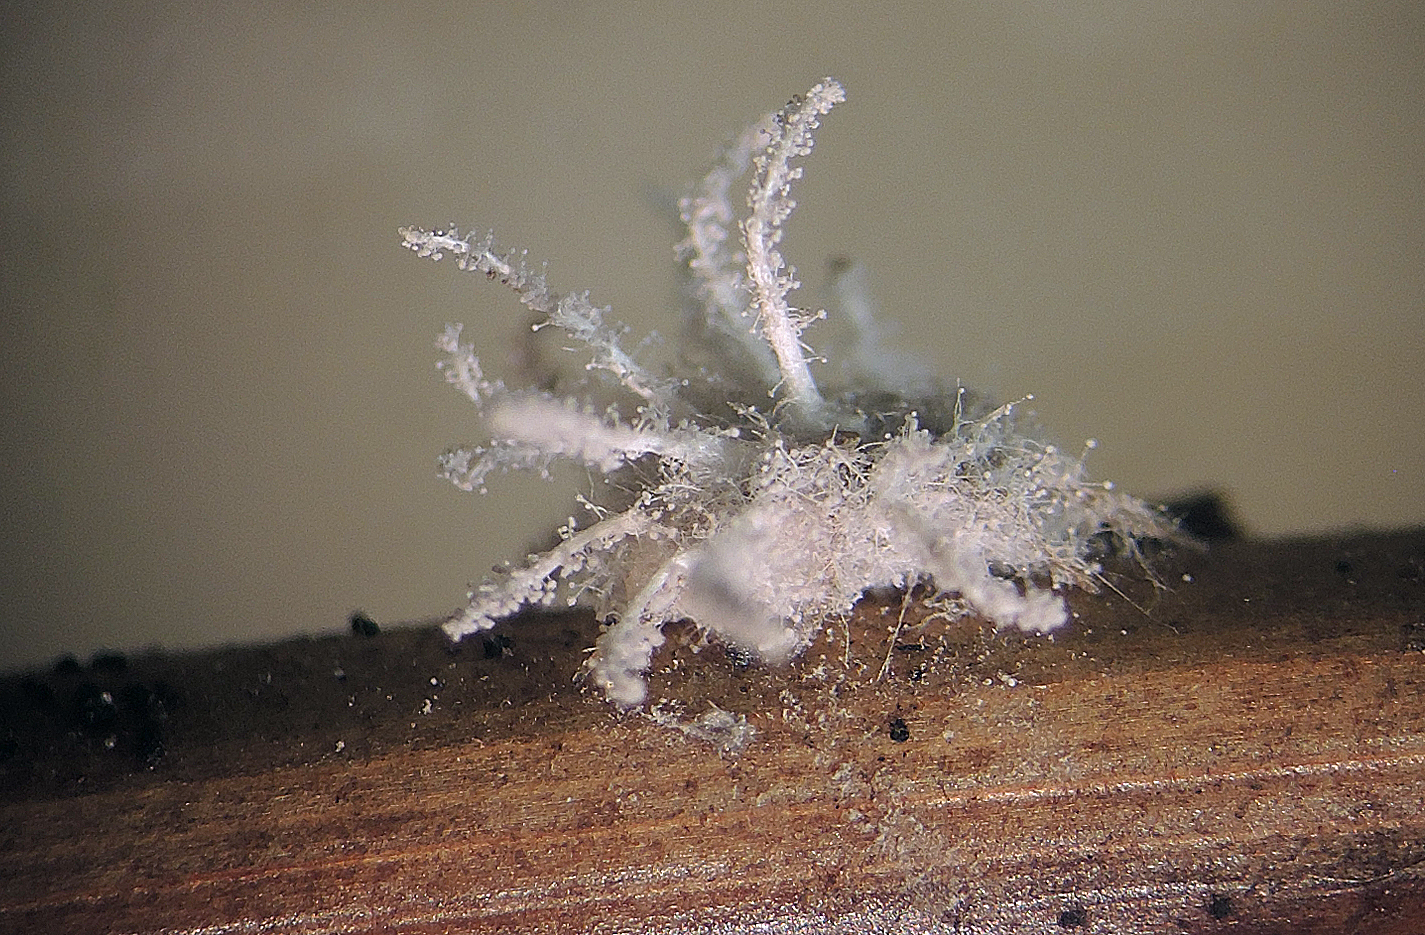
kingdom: Fungi
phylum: Ascomycota
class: Sordariomycetes
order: Hypocreales
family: Cordycipitaceae
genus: Gibellula
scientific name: Gibellula pulchra
